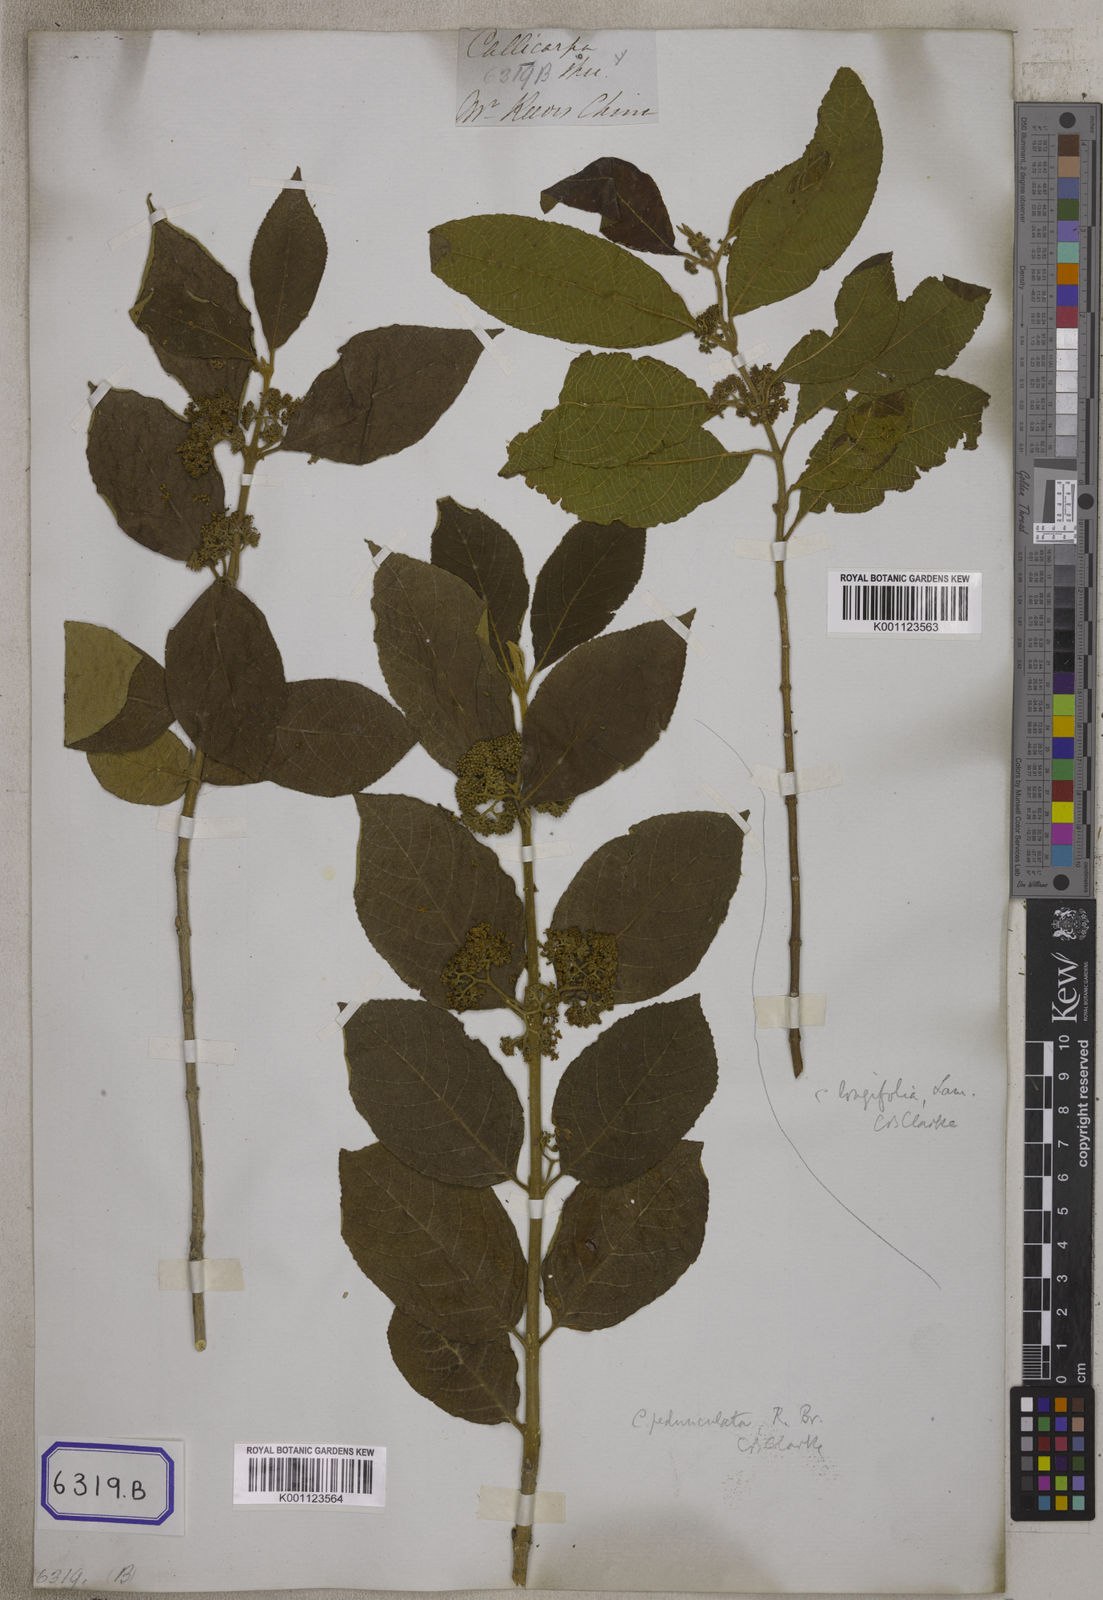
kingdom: Plantae
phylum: Tracheophyta
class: Magnoliopsida
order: Lamiales
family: Lamiaceae
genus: Callicarpa
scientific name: Callicarpa
